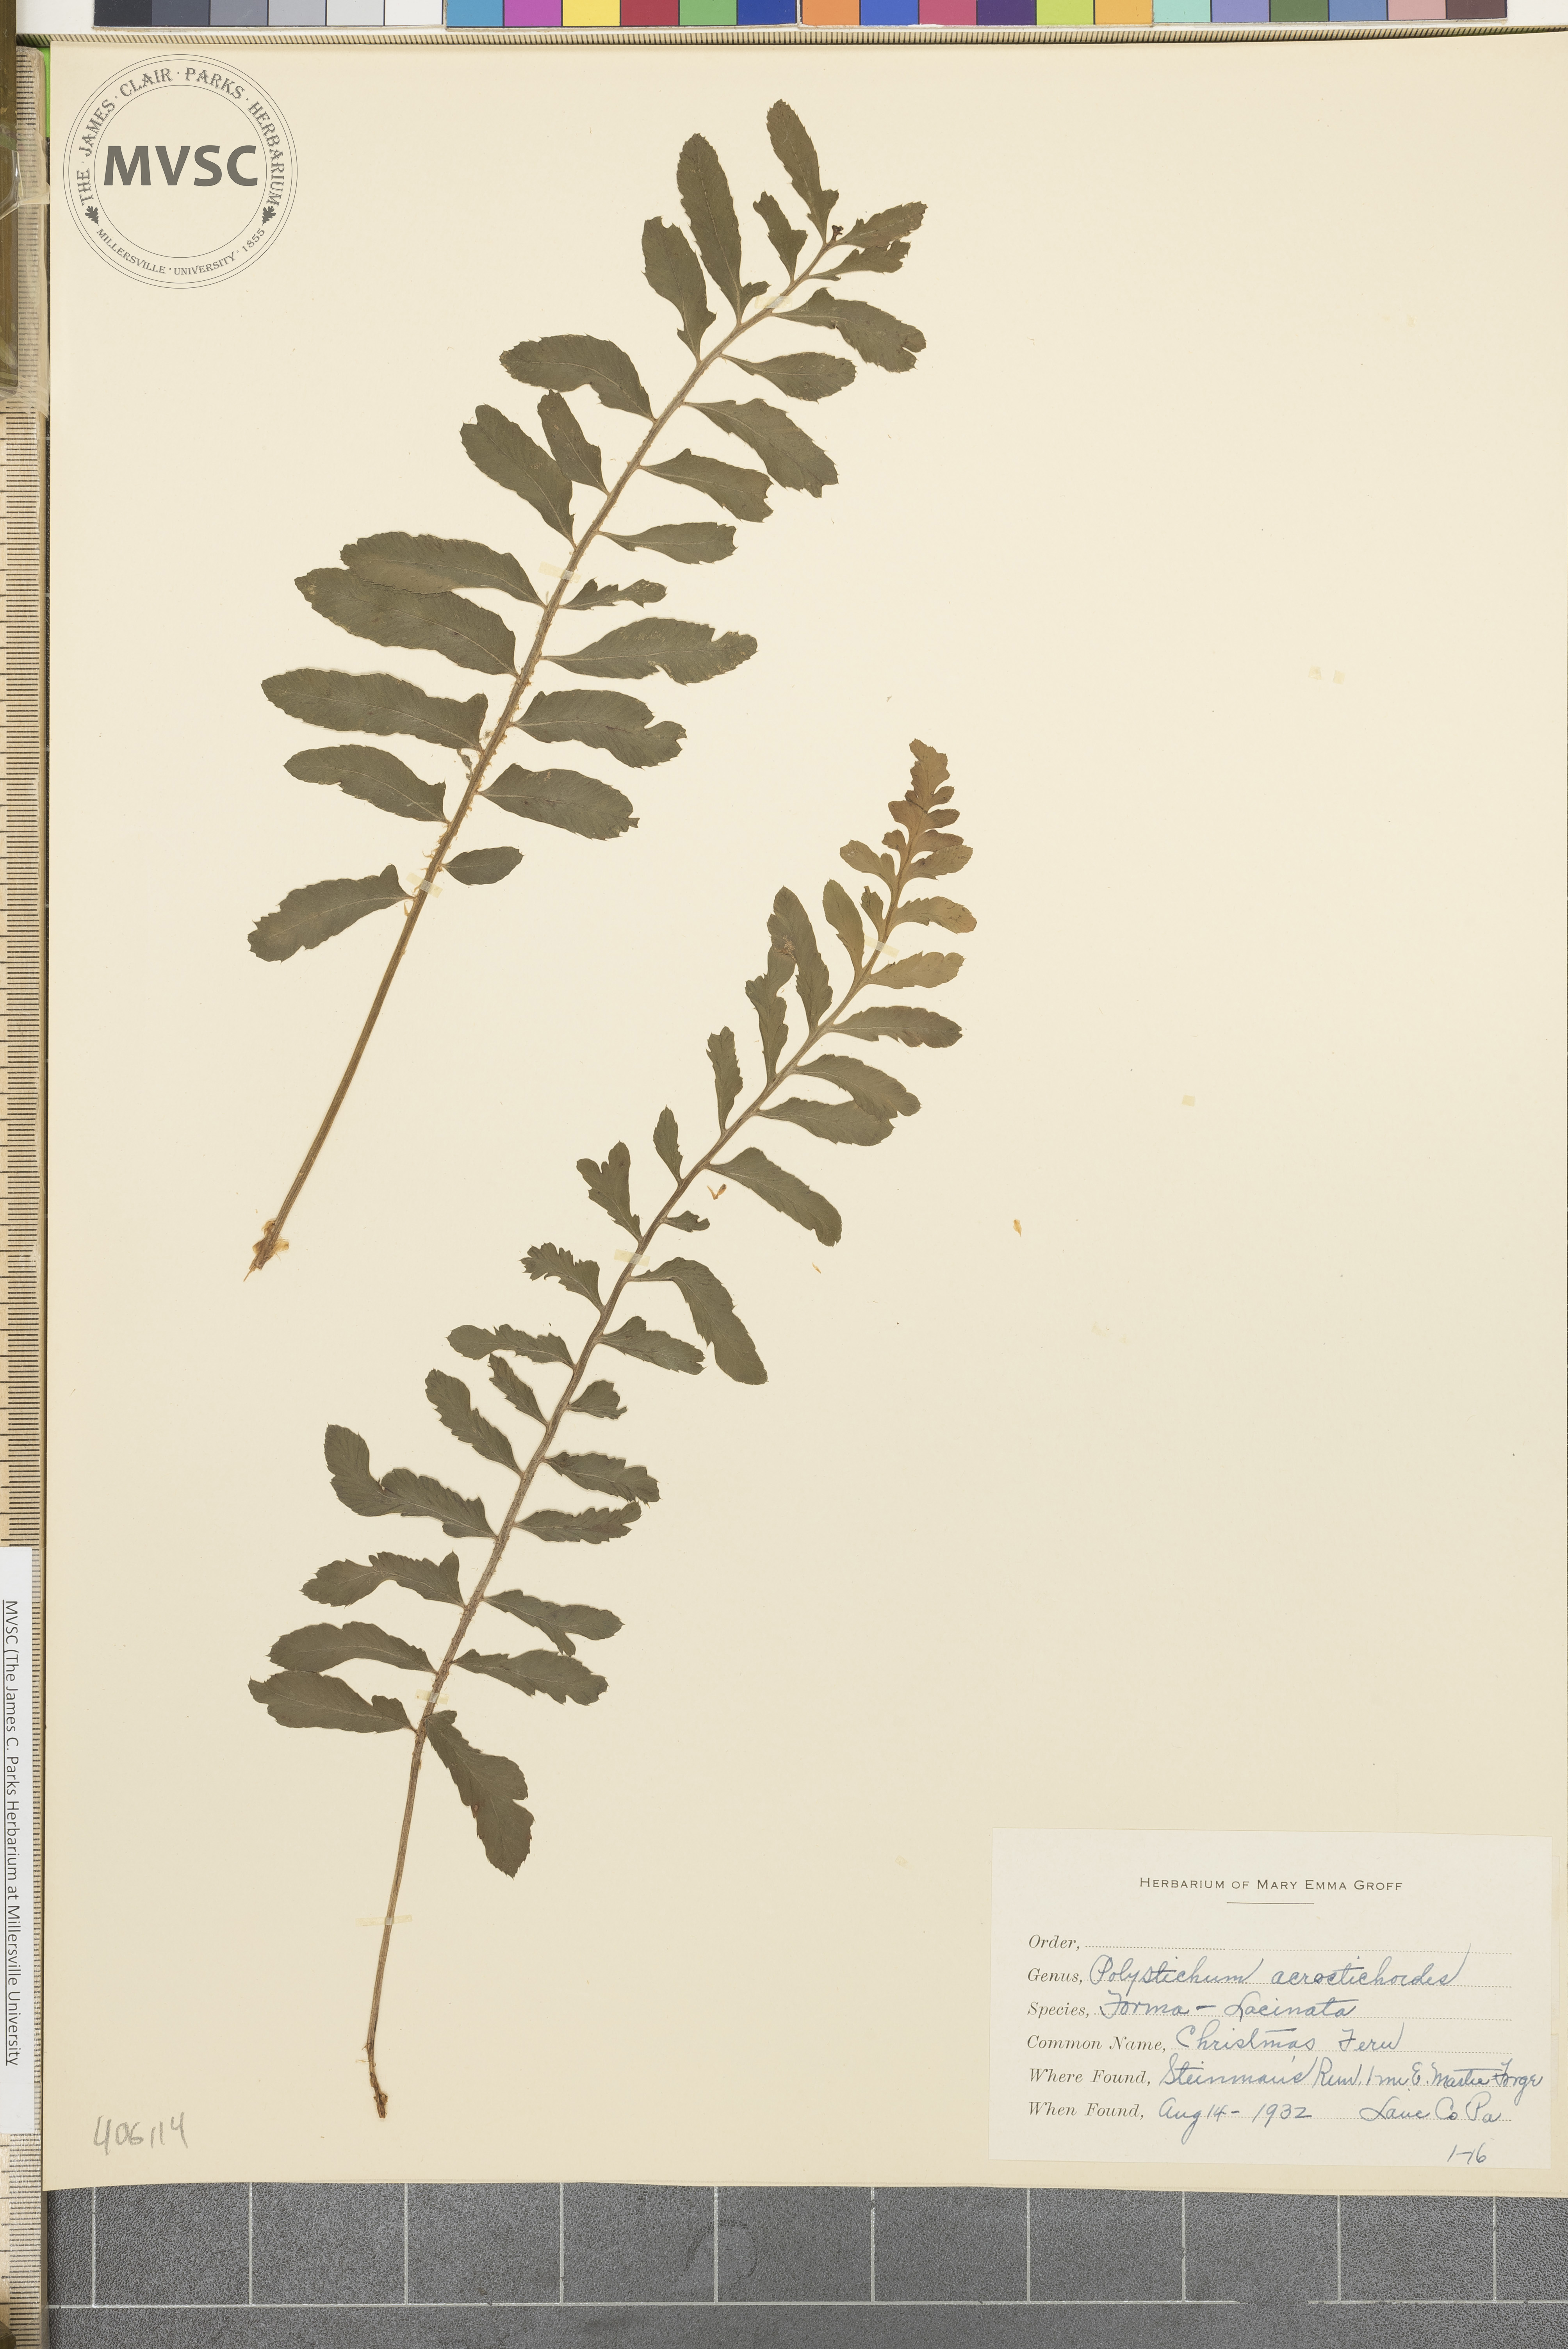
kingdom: Plantae
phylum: Tracheophyta
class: Polypodiopsida
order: Polypodiales
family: Dryopteridaceae
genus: Polystichum
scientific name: Polystichum acrostichoides
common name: Christmas fern
